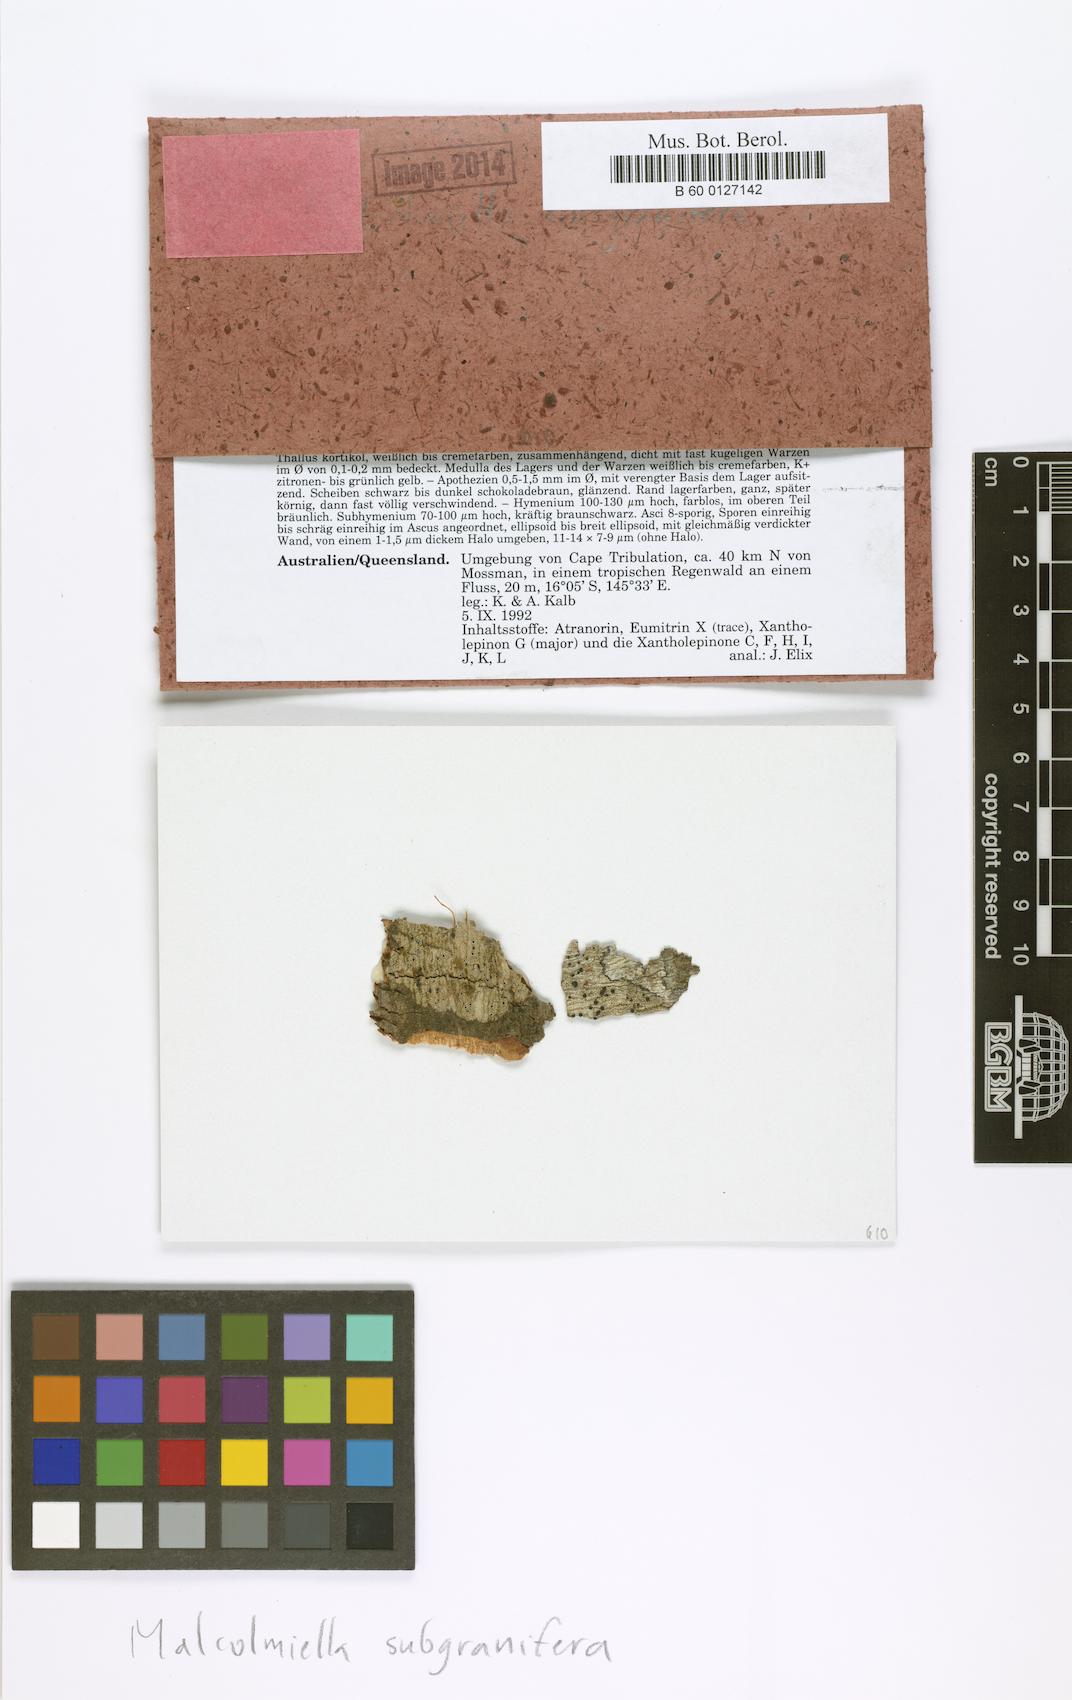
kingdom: Fungi
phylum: Ascomycota
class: Lecanoromycetes
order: Lecanorales
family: Malmideaceae
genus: Malmidea
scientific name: Malmidea subgranifera
